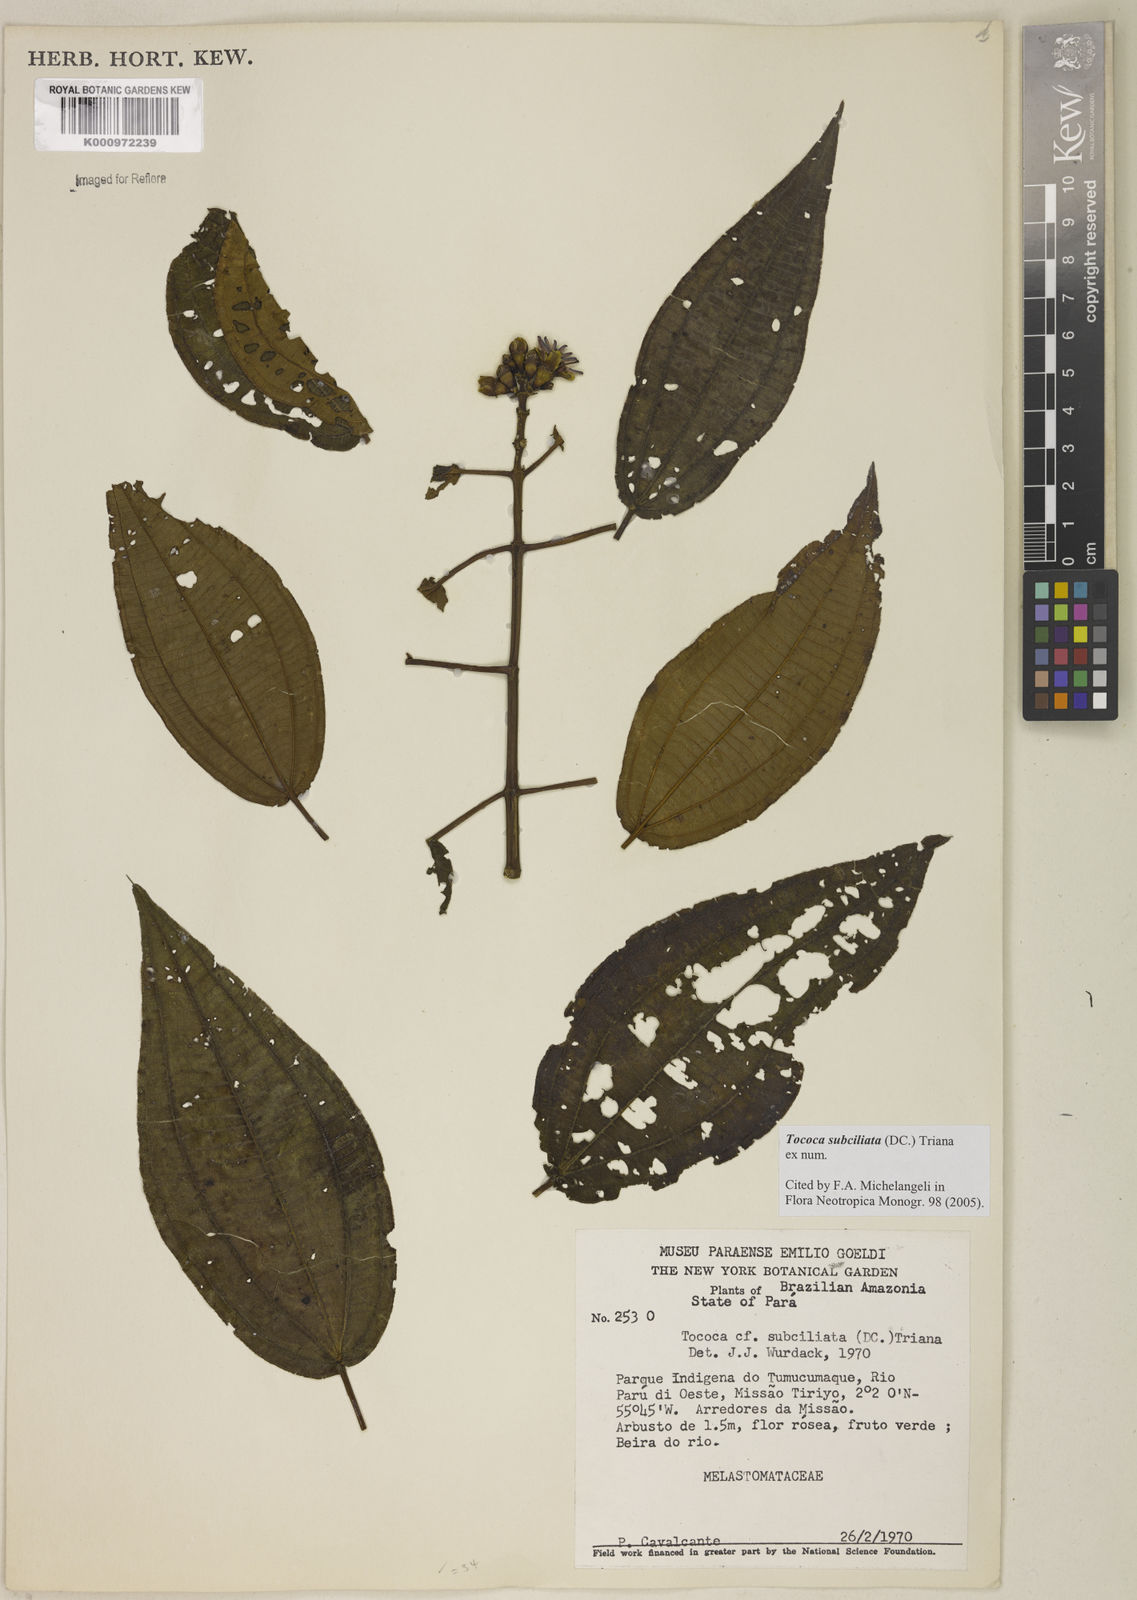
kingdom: Plantae
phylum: Tracheophyta
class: Magnoliopsida
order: Myrtales
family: Melastomataceae
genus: Miconia
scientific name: Miconia subciliata
